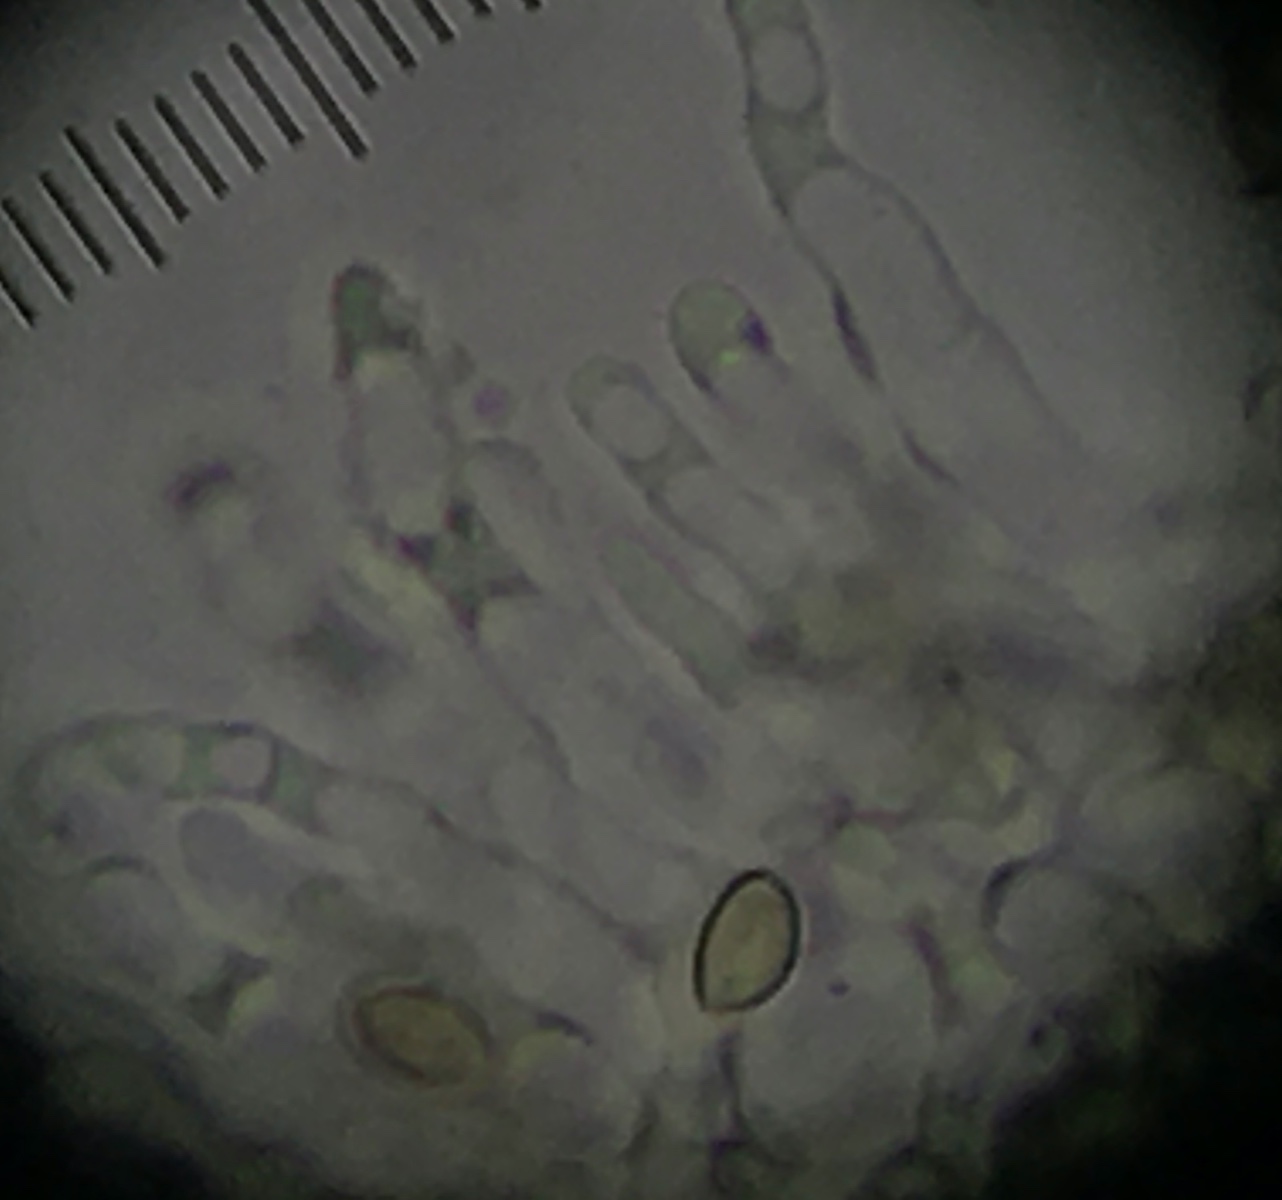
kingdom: Fungi
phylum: Basidiomycota
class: Agaricomycetes
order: Agaricales
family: Bolbitiaceae
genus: Conocybe
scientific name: Conocybe arrhenii
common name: ring-dansehat
